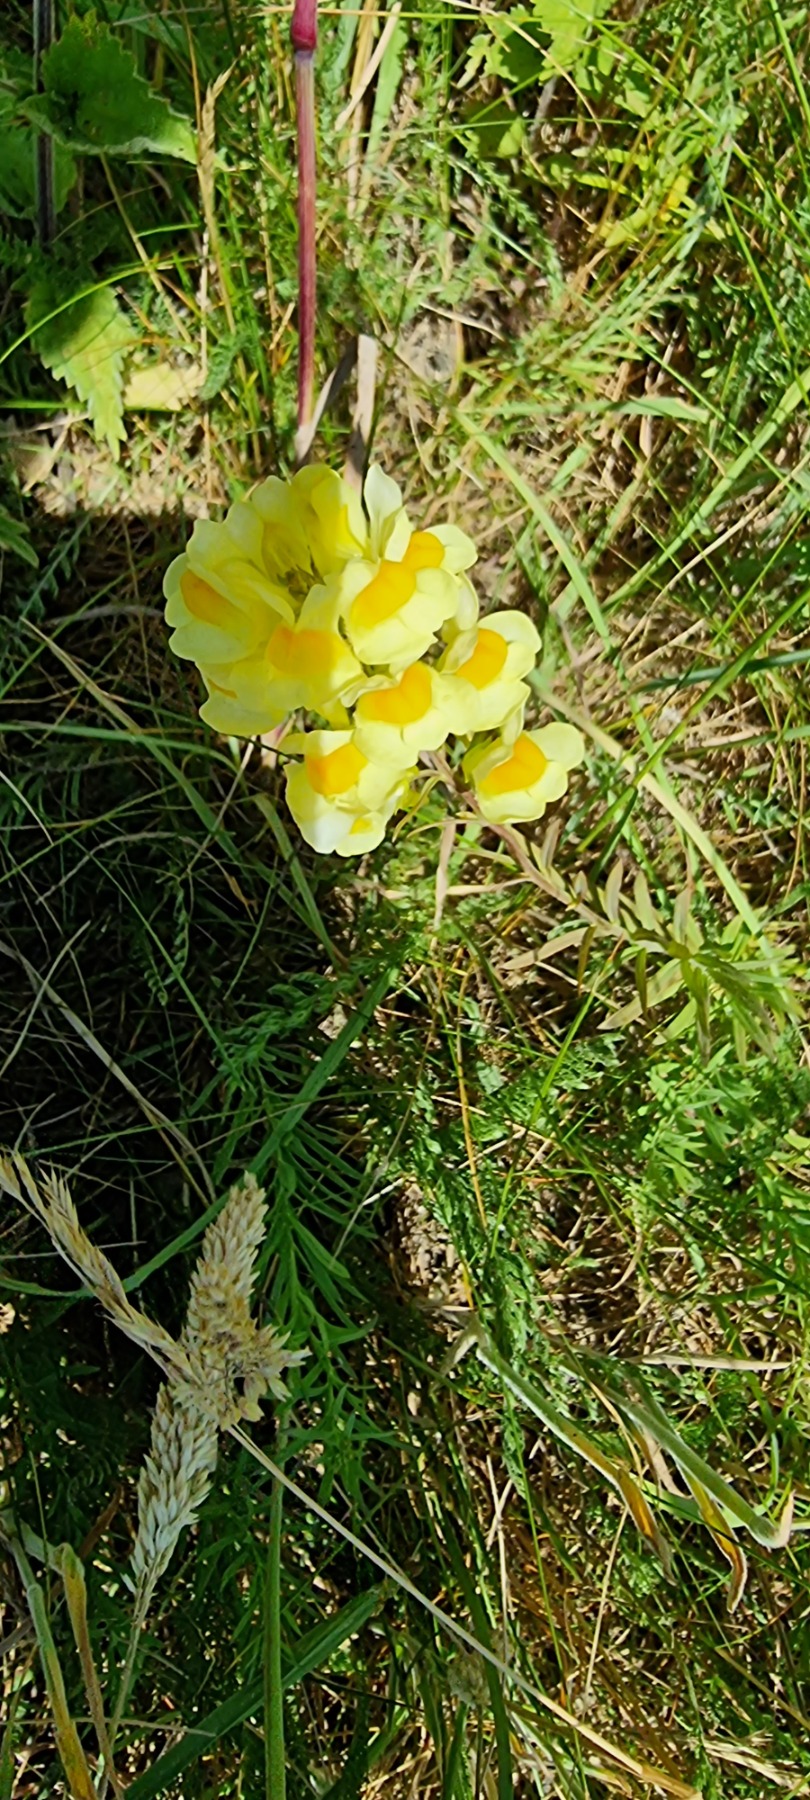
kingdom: Plantae
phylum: Tracheophyta
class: Magnoliopsida
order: Lamiales
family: Plantaginaceae
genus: Linaria
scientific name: Linaria vulgaris
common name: Almindelig torskemund
